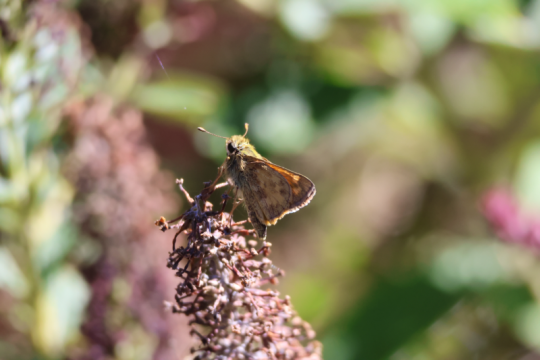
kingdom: Animalia
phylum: Arthropoda
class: Insecta
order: Lepidoptera
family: Hesperiidae
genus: Atalopedes
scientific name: Atalopedes campestris
